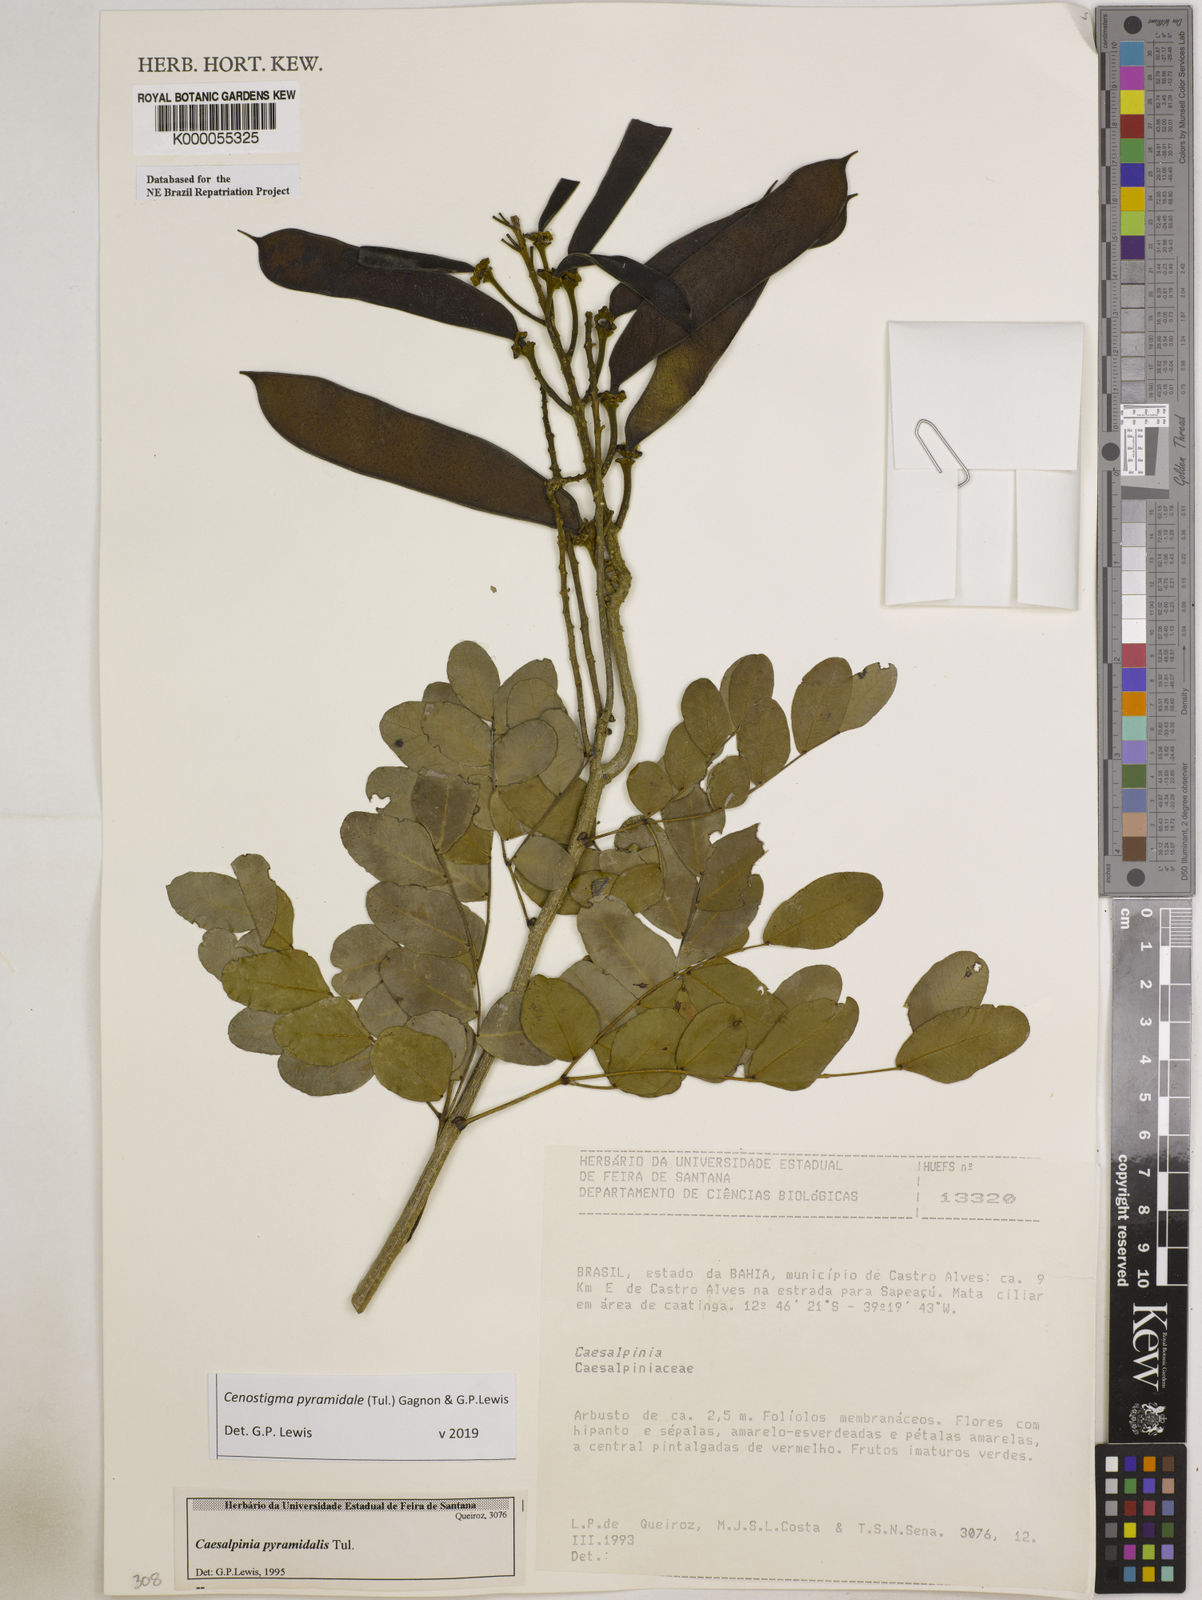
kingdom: Plantae
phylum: Tracheophyta
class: Magnoliopsida
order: Fabales
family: Fabaceae
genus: Cenostigma
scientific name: Cenostigma pyramidale
